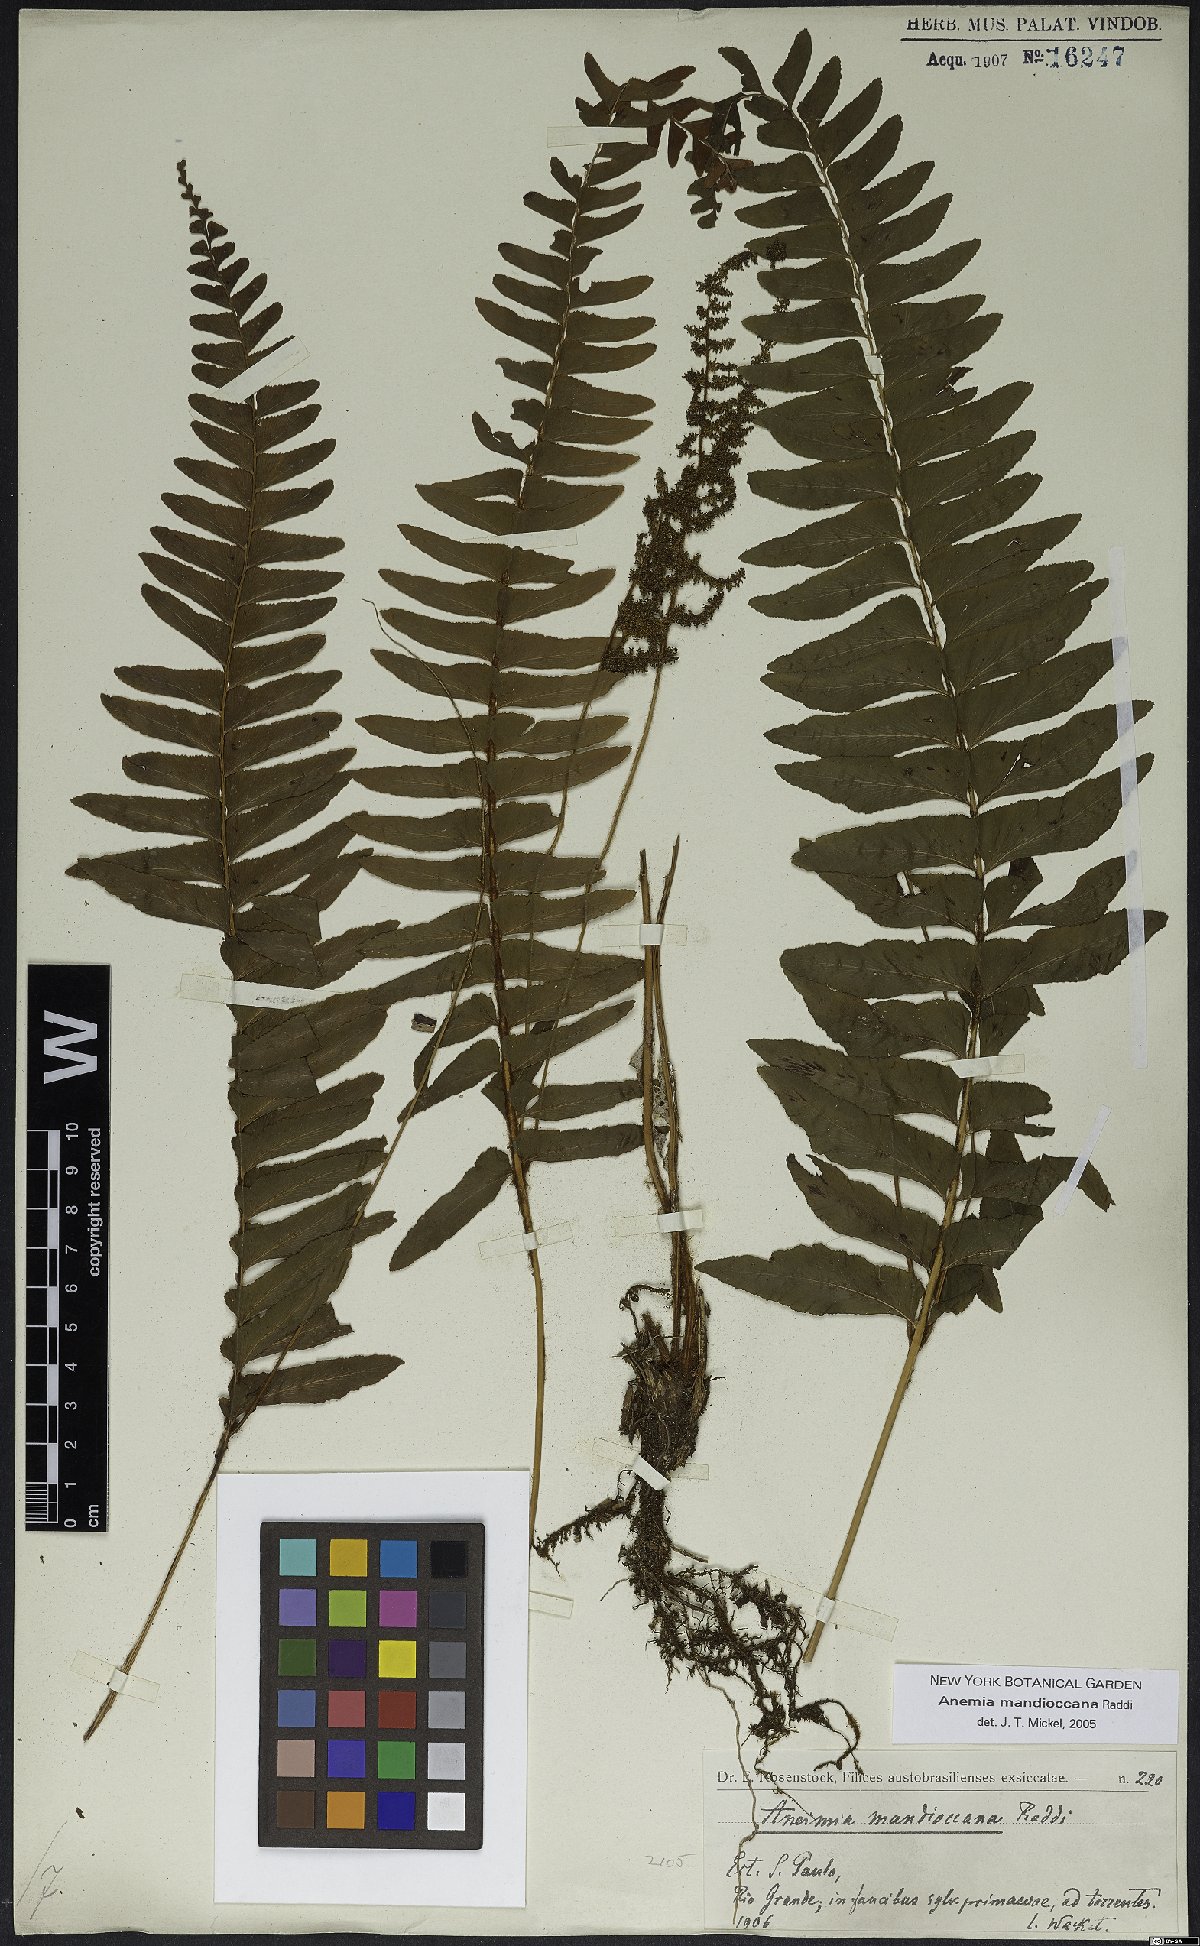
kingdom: Plantae
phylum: Tracheophyta
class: Polypodiopsida
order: Schizaeales
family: Anemiaceae
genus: Anemia
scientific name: Anemia mandiocana
